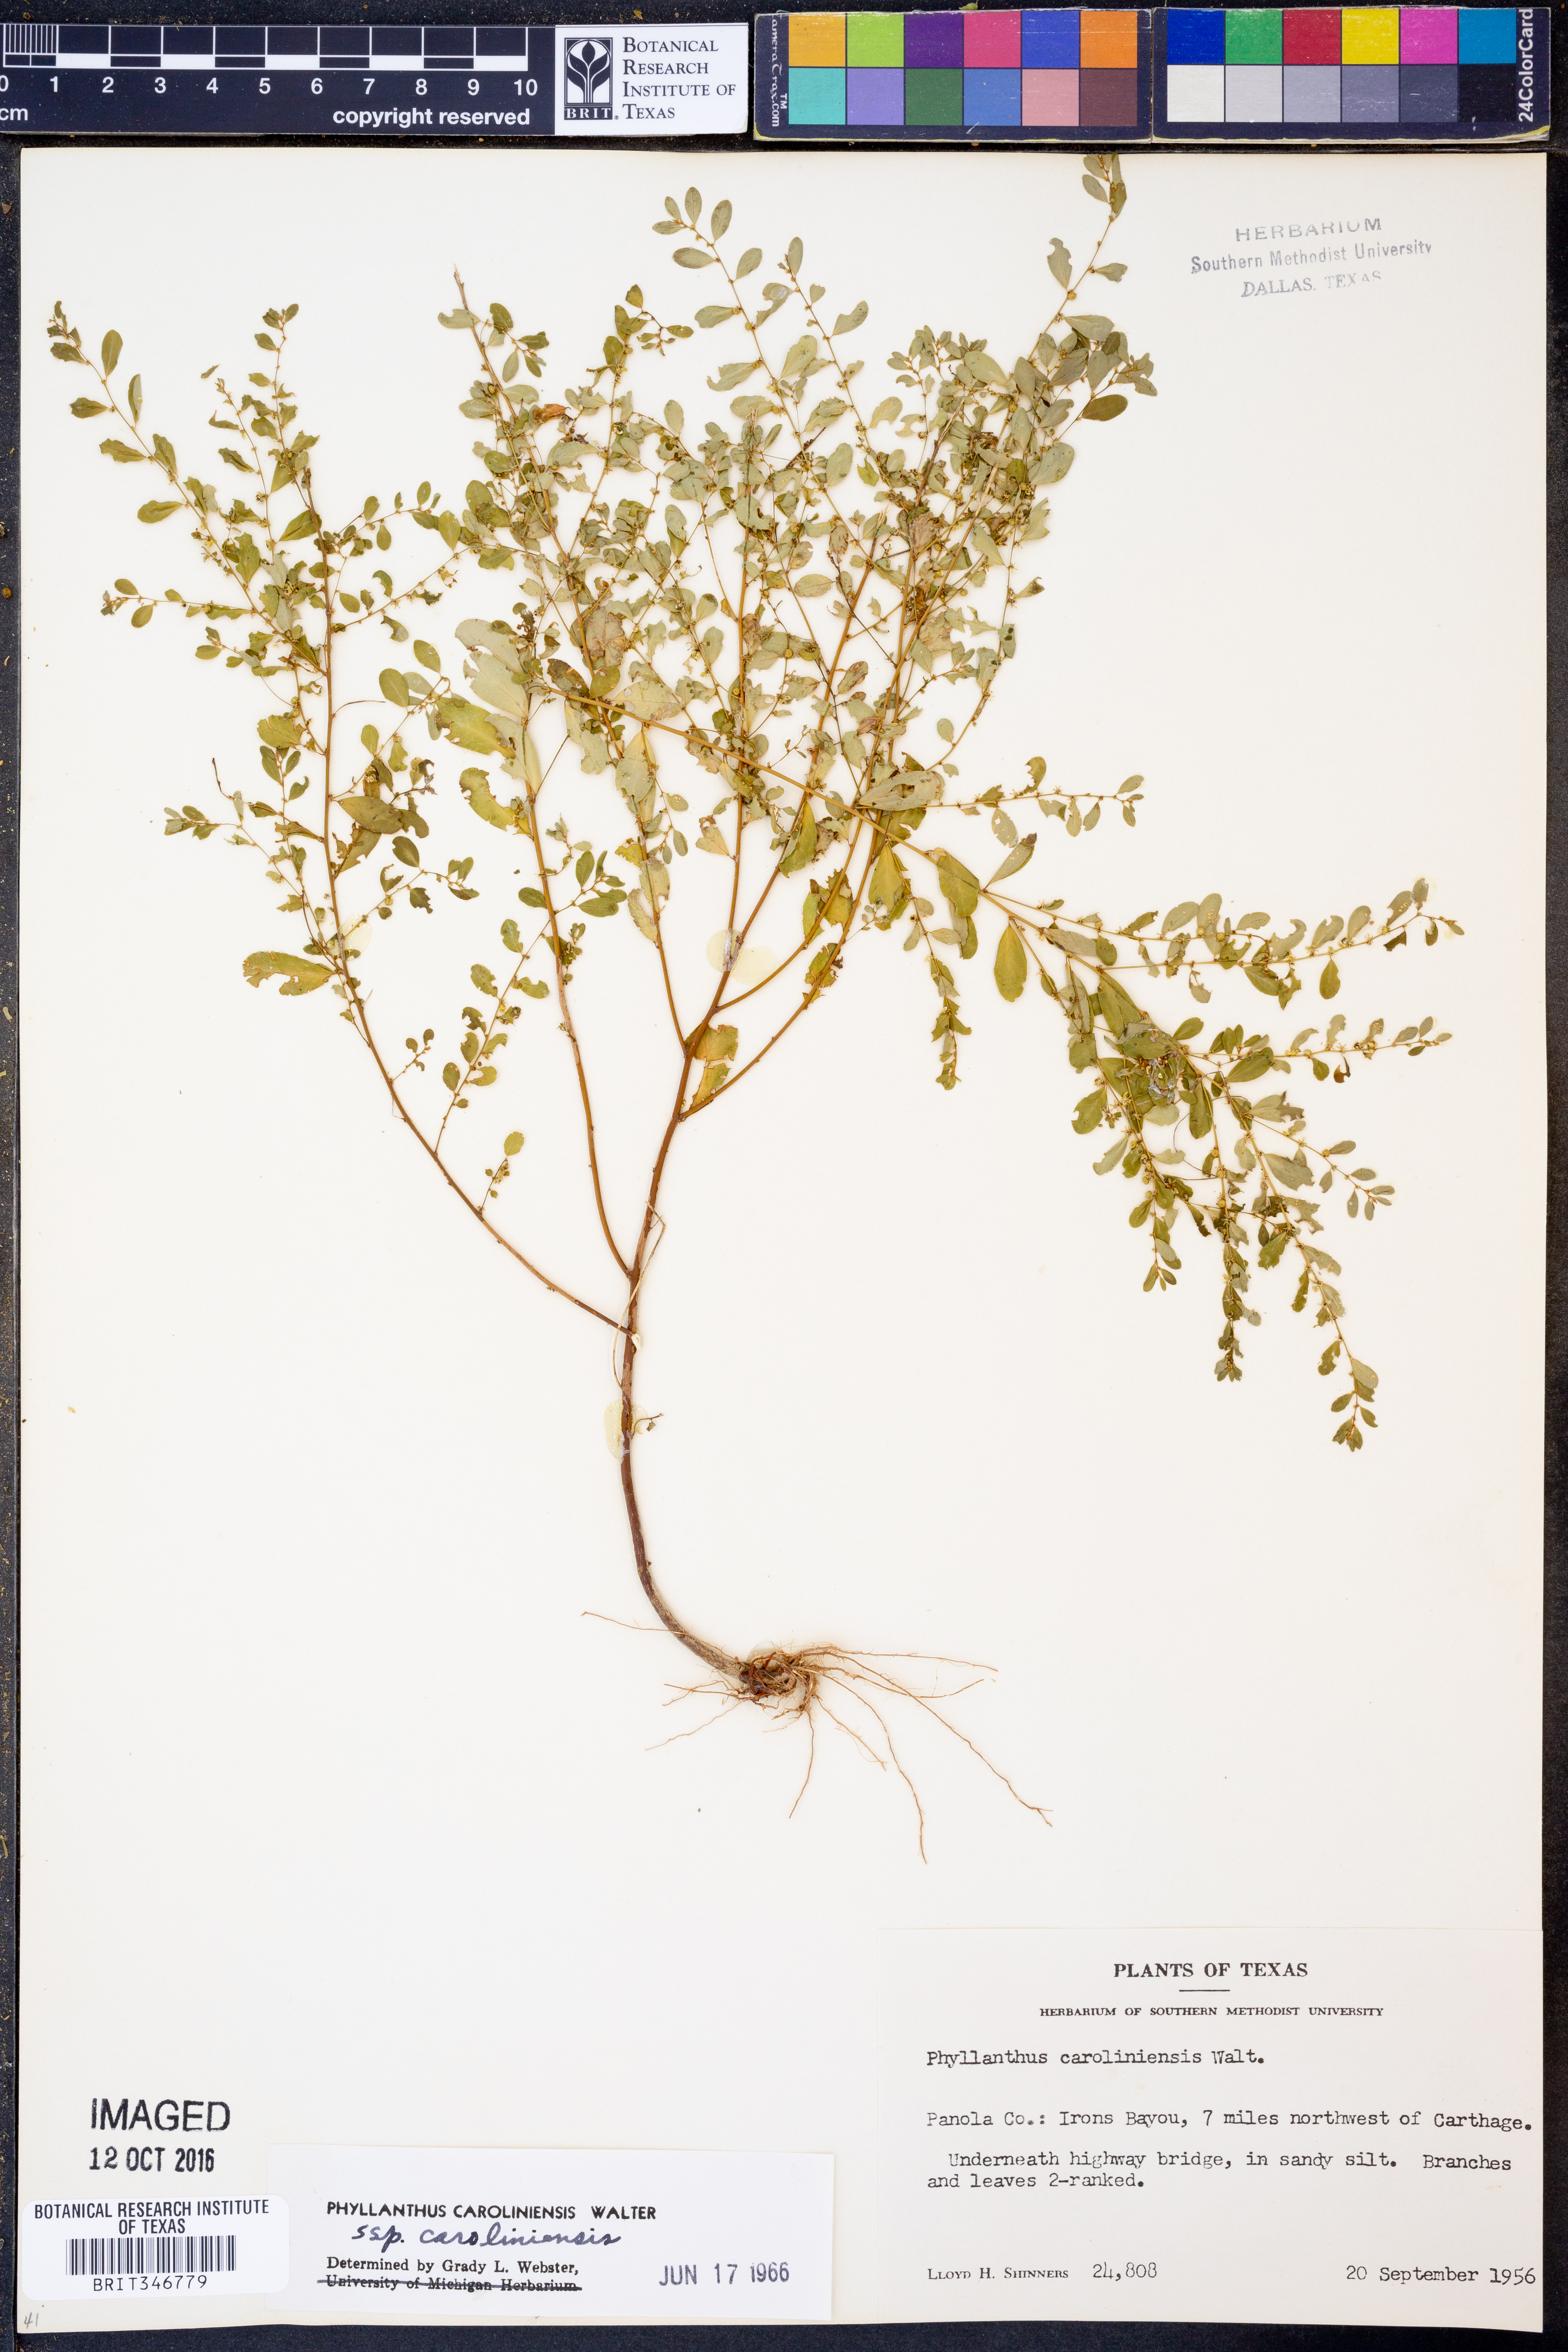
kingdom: Plantae
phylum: Tracheophyta
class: Magnoliopsida
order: Malpighiales
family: Phyllanthaceae
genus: Phyllanthus
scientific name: Phyllanthus caroliniensis
